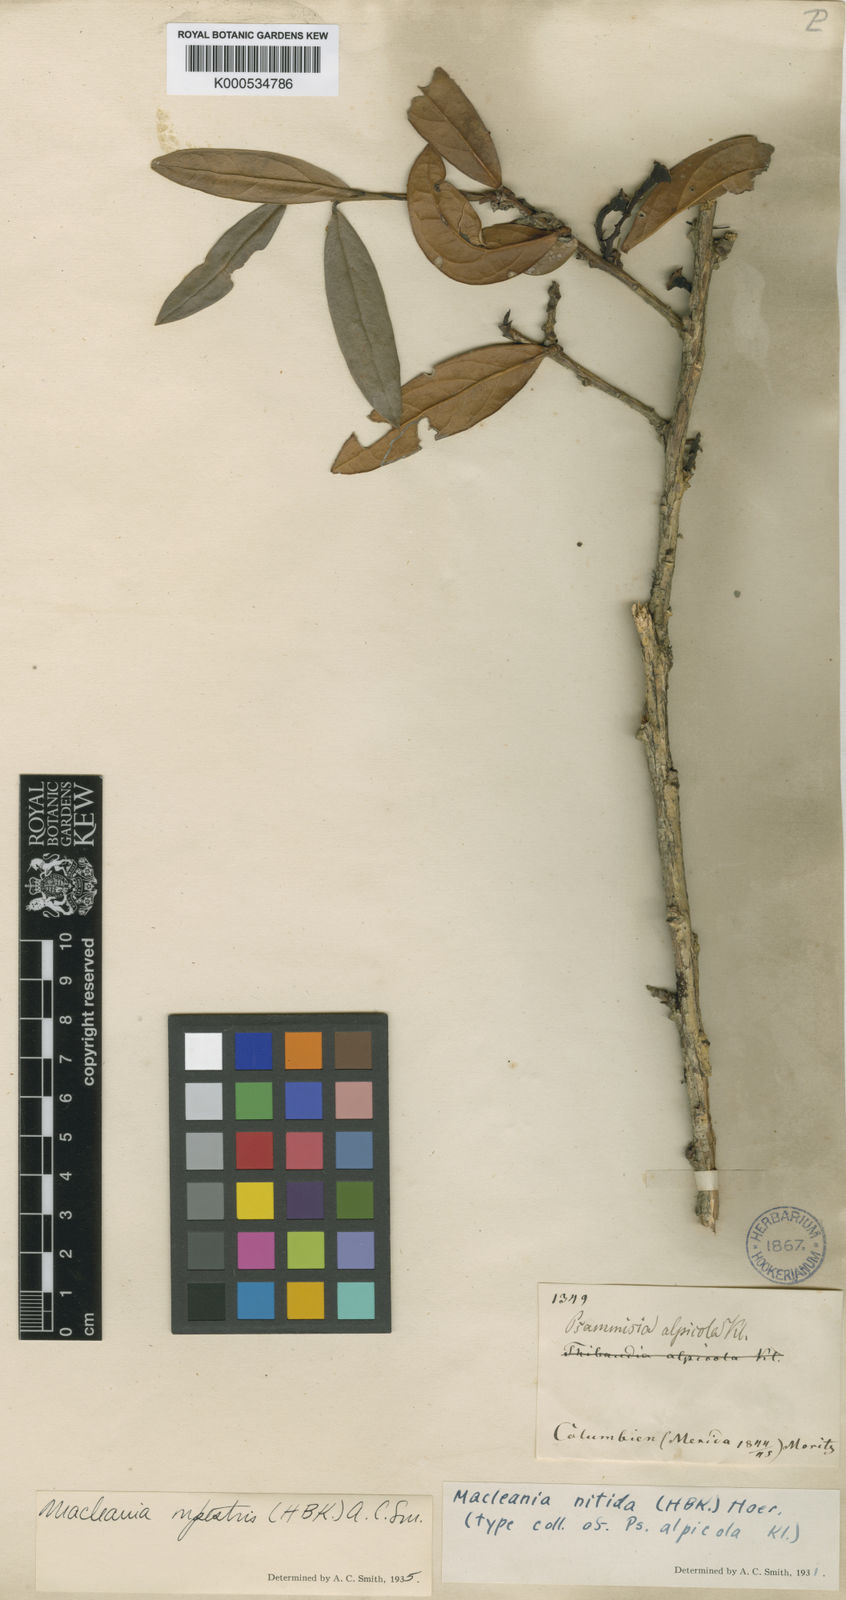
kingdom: Plantae
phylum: Tracheophyta
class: Magnoliopsida
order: Ericales
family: Ericaceae
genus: Macleania
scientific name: Macleania rupestris
